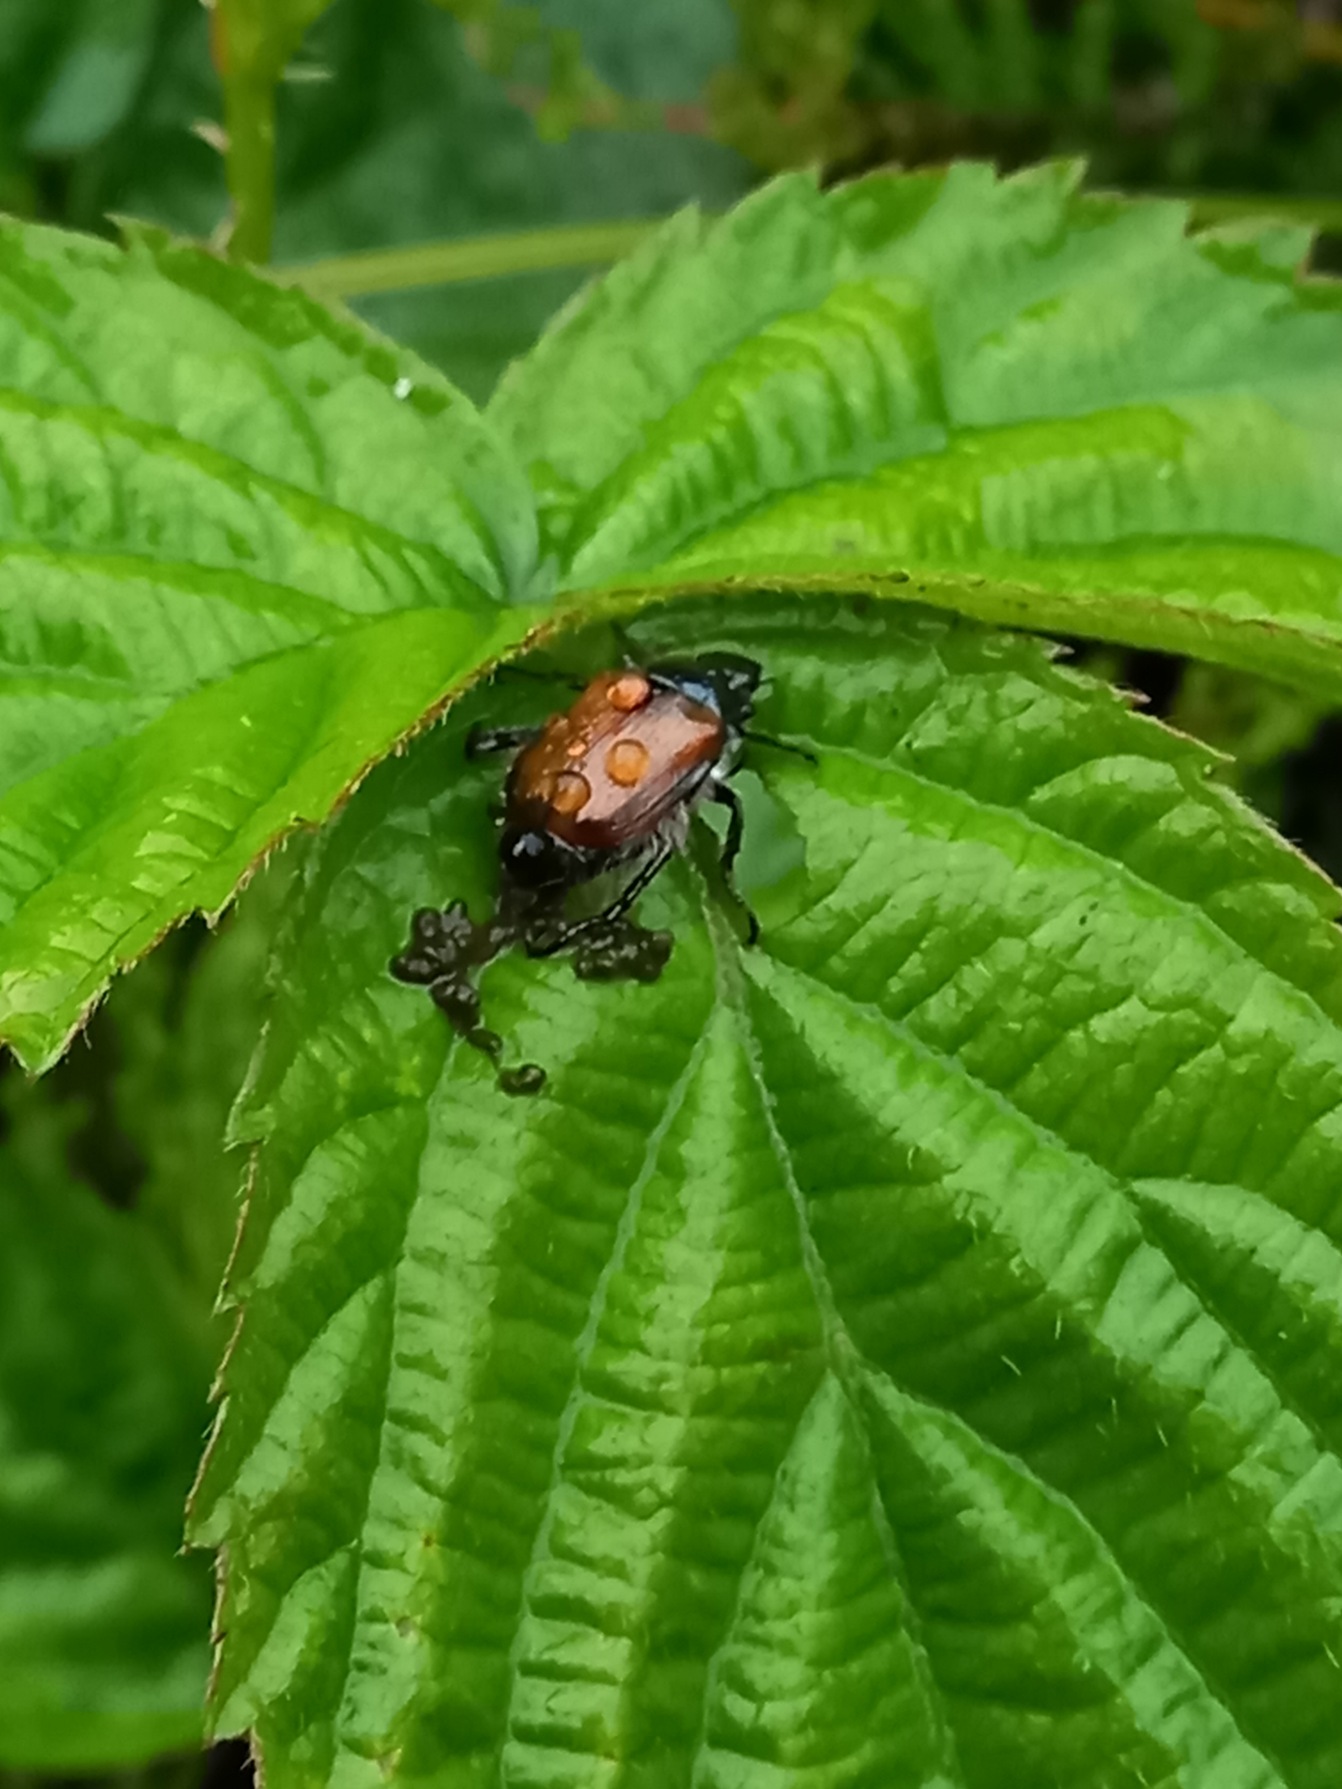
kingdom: Animalia
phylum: Arthropoda
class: Insecta
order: Coleoptera
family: Scarabaeidae
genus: Phyllopertha
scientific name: Phyllopertha horticola
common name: Gåsebille
